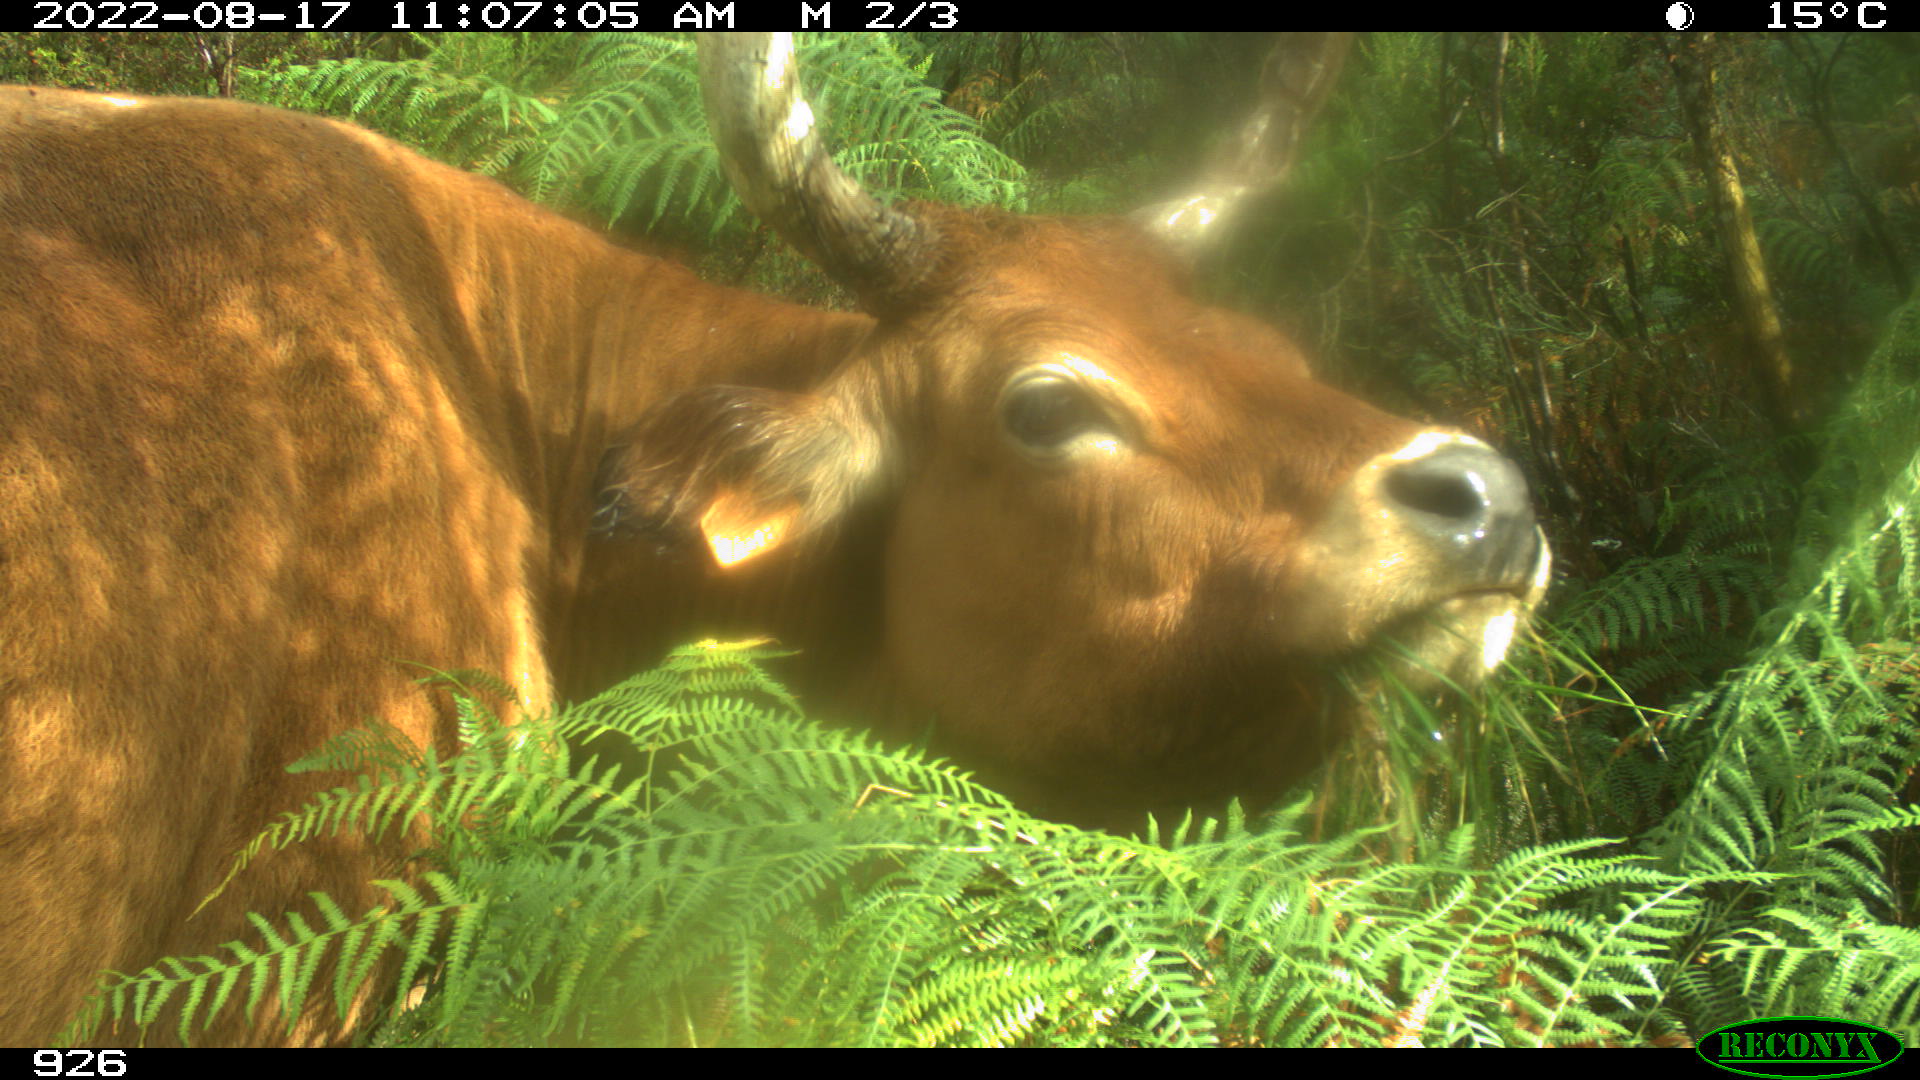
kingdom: Animalia
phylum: Chordata
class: Mammalia
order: Artiodactyla
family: Bovidae
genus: Bos
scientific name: Bos taurus
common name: Domesticated cattle
